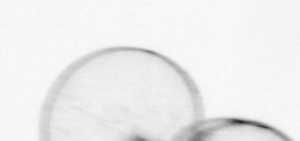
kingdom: Chromista
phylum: Myzozoa
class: Dinophyceae
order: Noctilucales
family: Noctilucaceae
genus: Noctiluca
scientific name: Noctiluca scintillans
